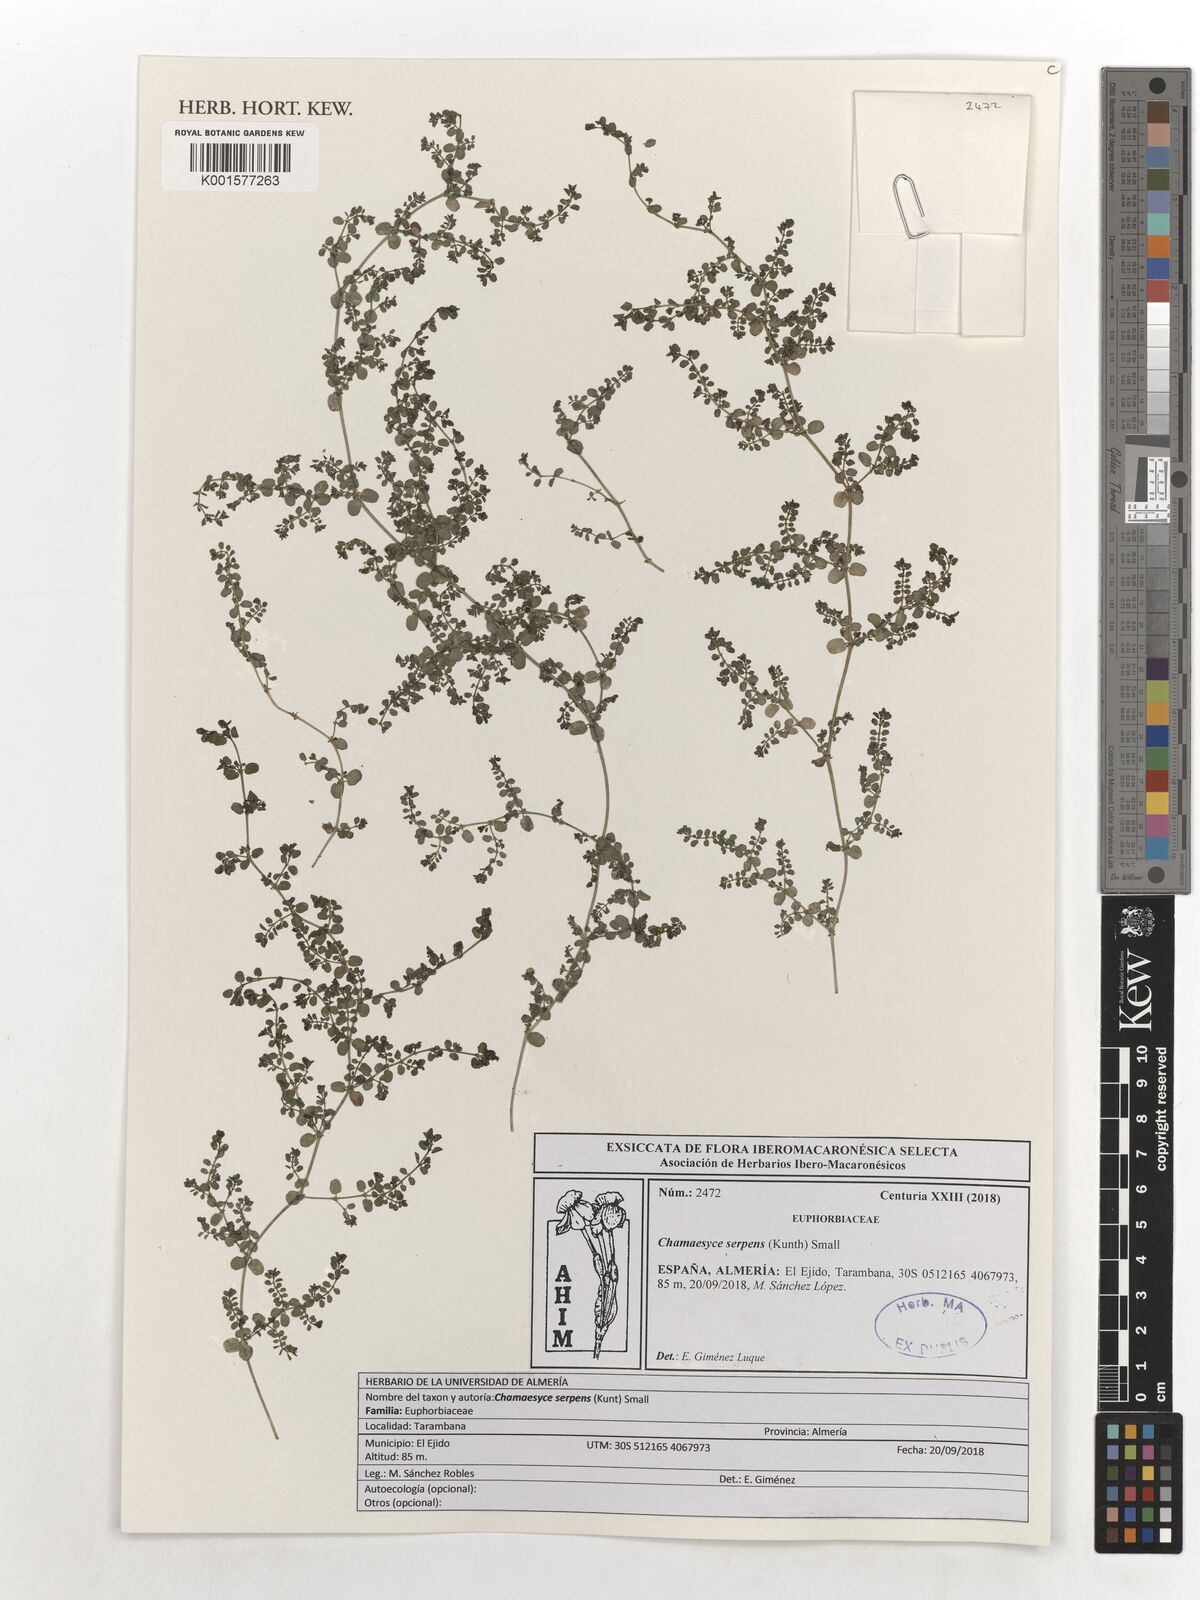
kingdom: Plantae
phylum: Tracheophyta
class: Magnoliopsida
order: Malpighiales
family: Euphorbiaceae
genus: Euphorbia
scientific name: Euphorbia serpens
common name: Matted sandmat
